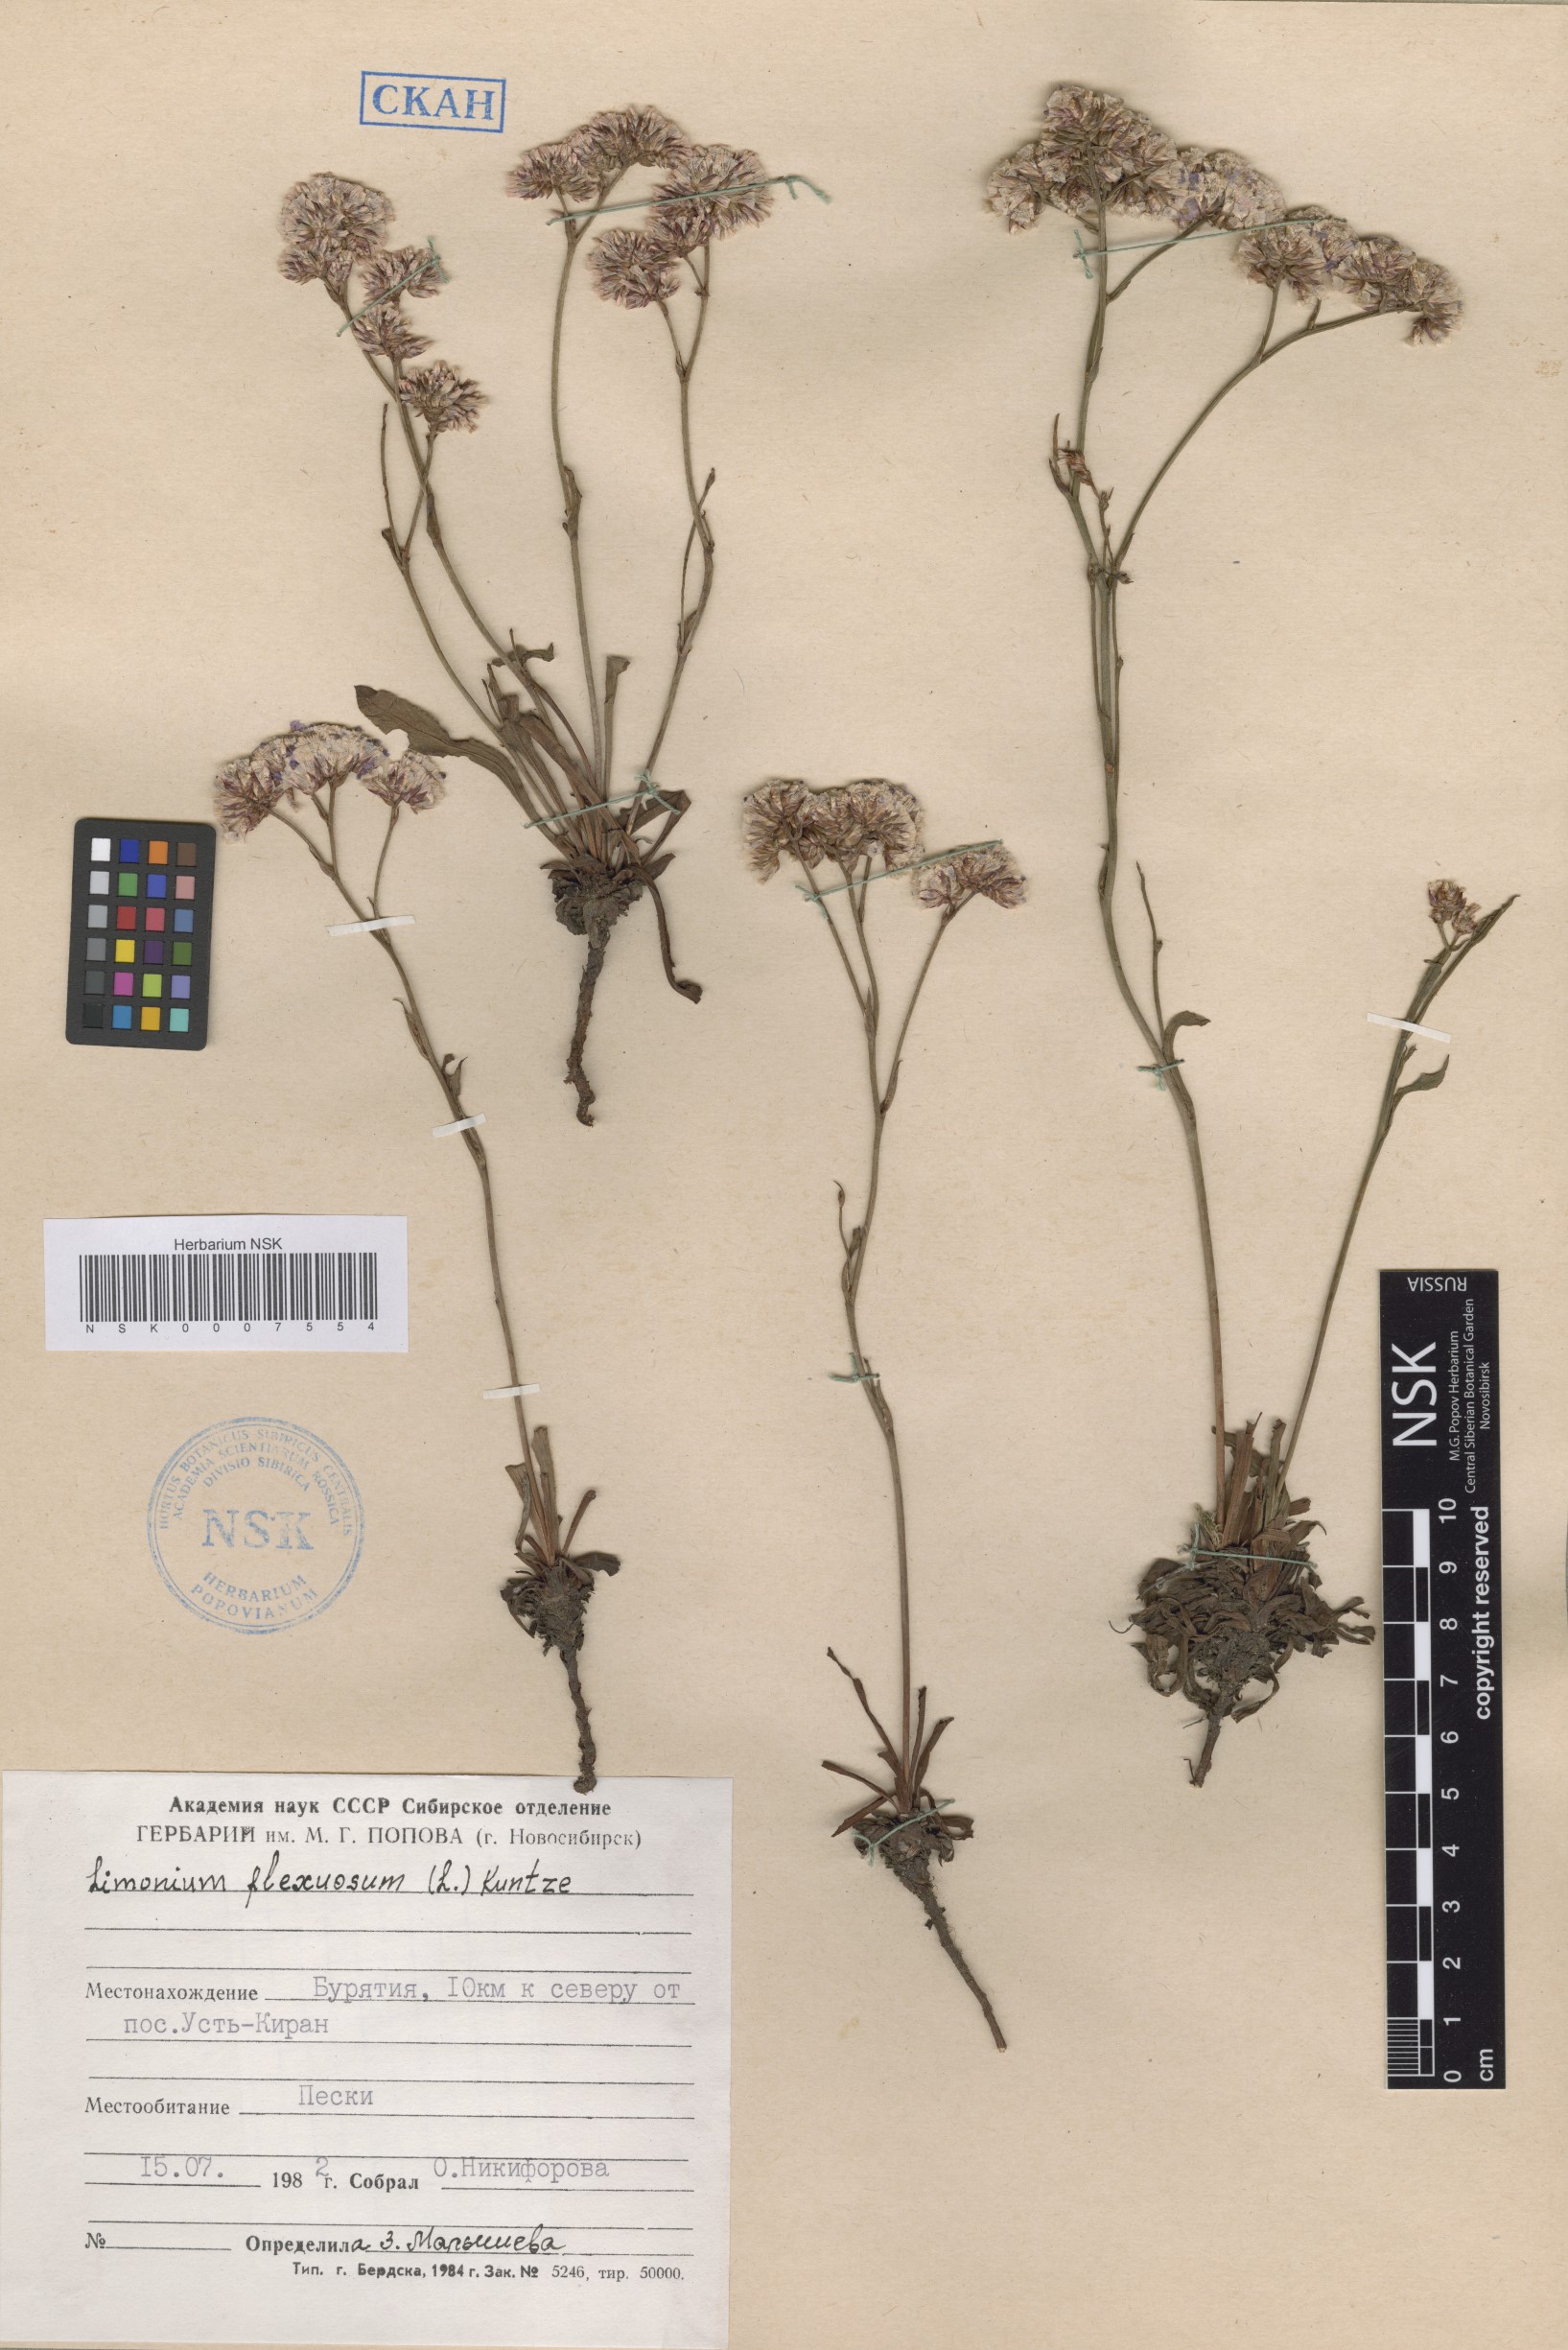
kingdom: Plantae
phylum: Tracheophyta
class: Magnoliopsida
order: Caryophyllales
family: Plumbaginaceae
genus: Limonium
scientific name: Limonium flexuosum
